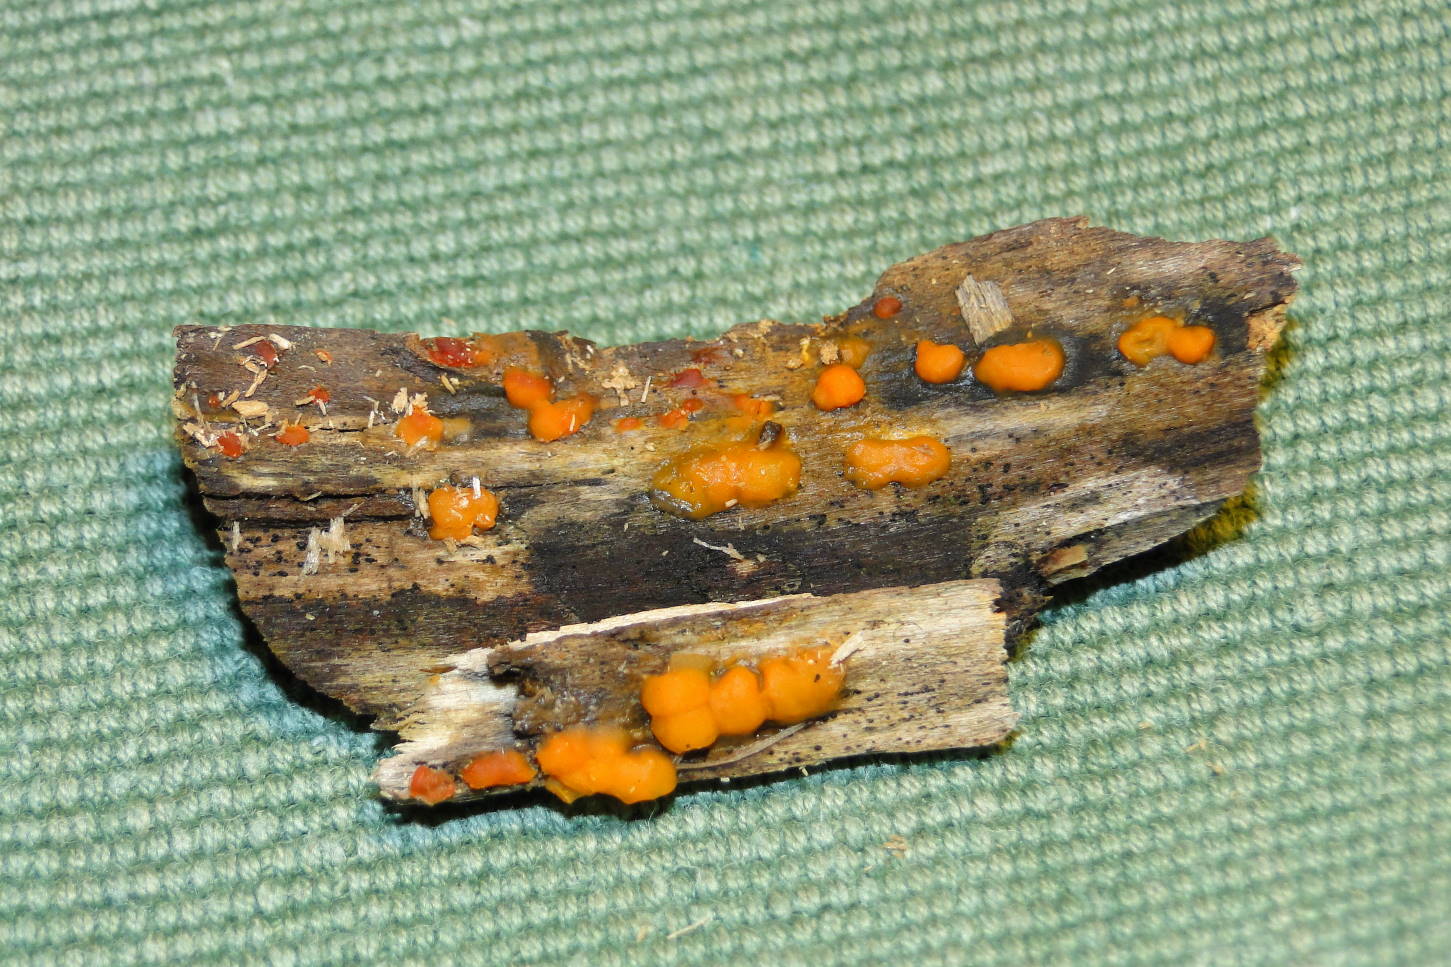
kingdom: Fungi
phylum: Basidiomycota
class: Dacrymycetes
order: Dacrymycetales
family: Dacrymycetaceae
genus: Dacrymyces
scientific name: Dacrymyces stillatus
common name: almindelig tåresvamp
